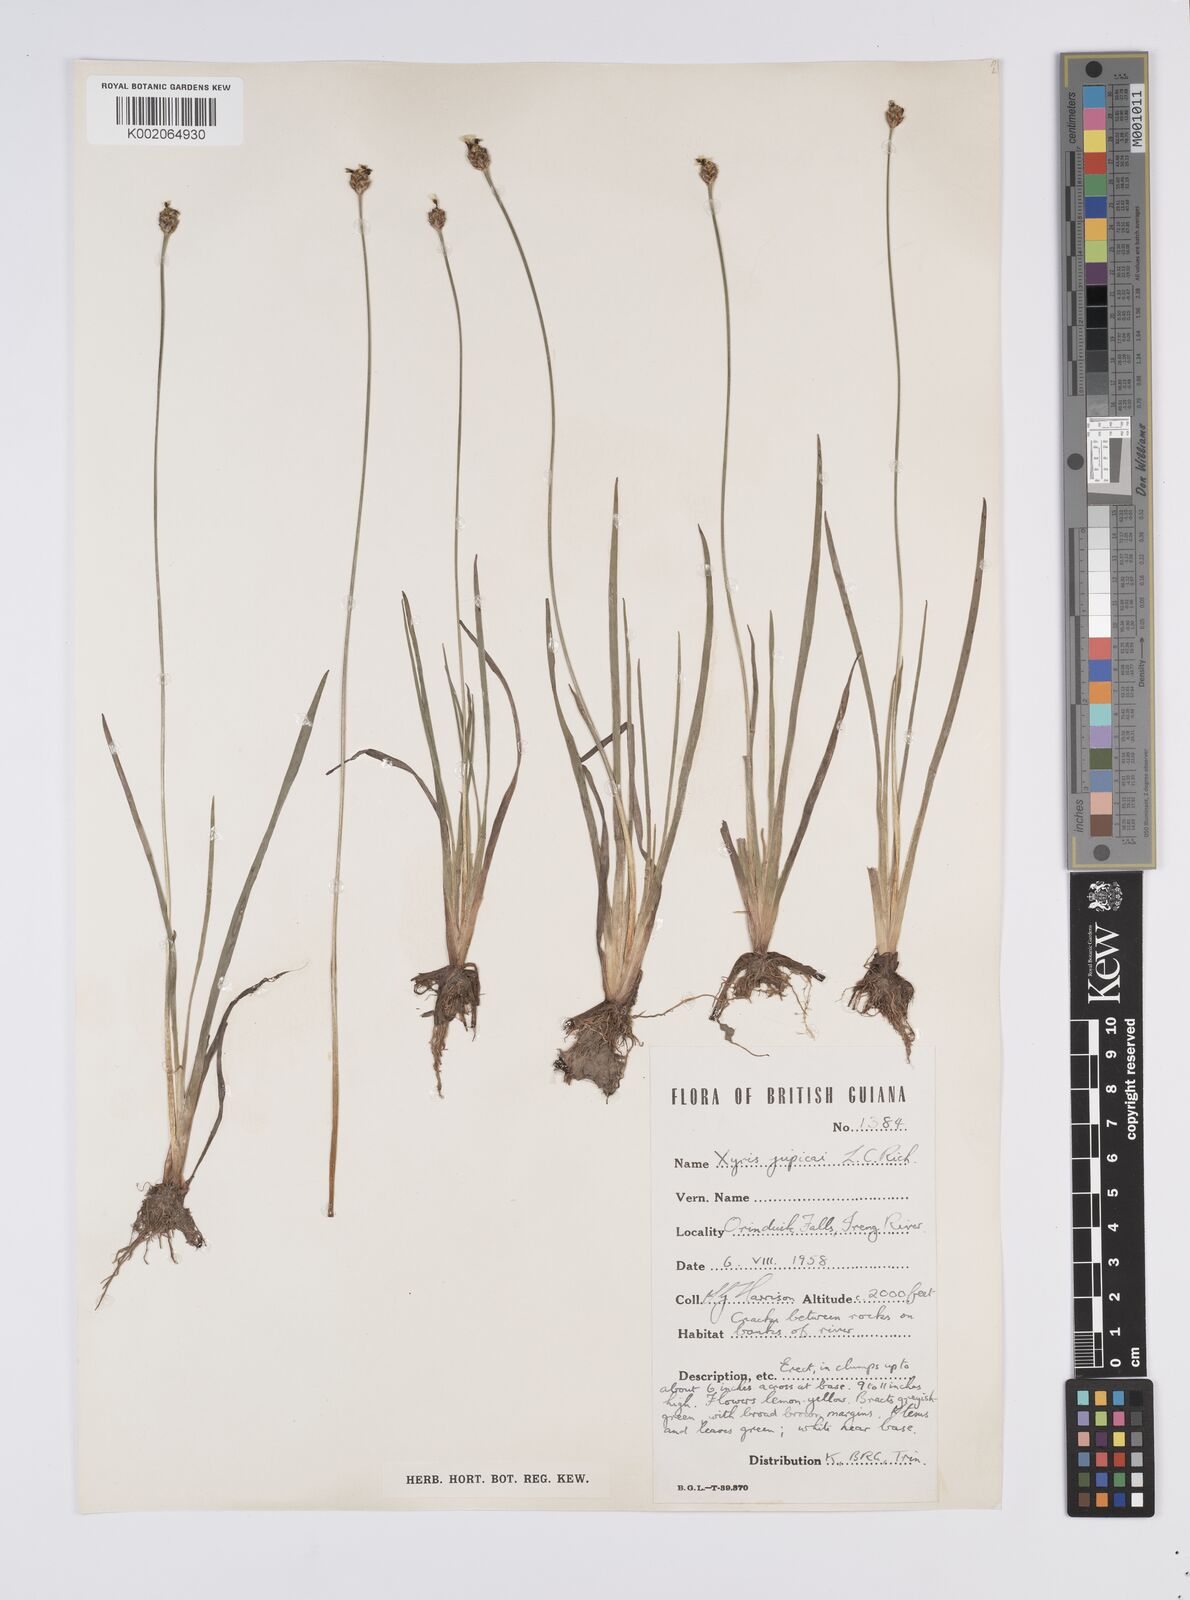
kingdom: Plantae
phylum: Tracheophyta
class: Liliopsida
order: Poales
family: Xyridaceae
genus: Xyris
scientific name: Xyris jupicai
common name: Richard's yelloweyed grass
